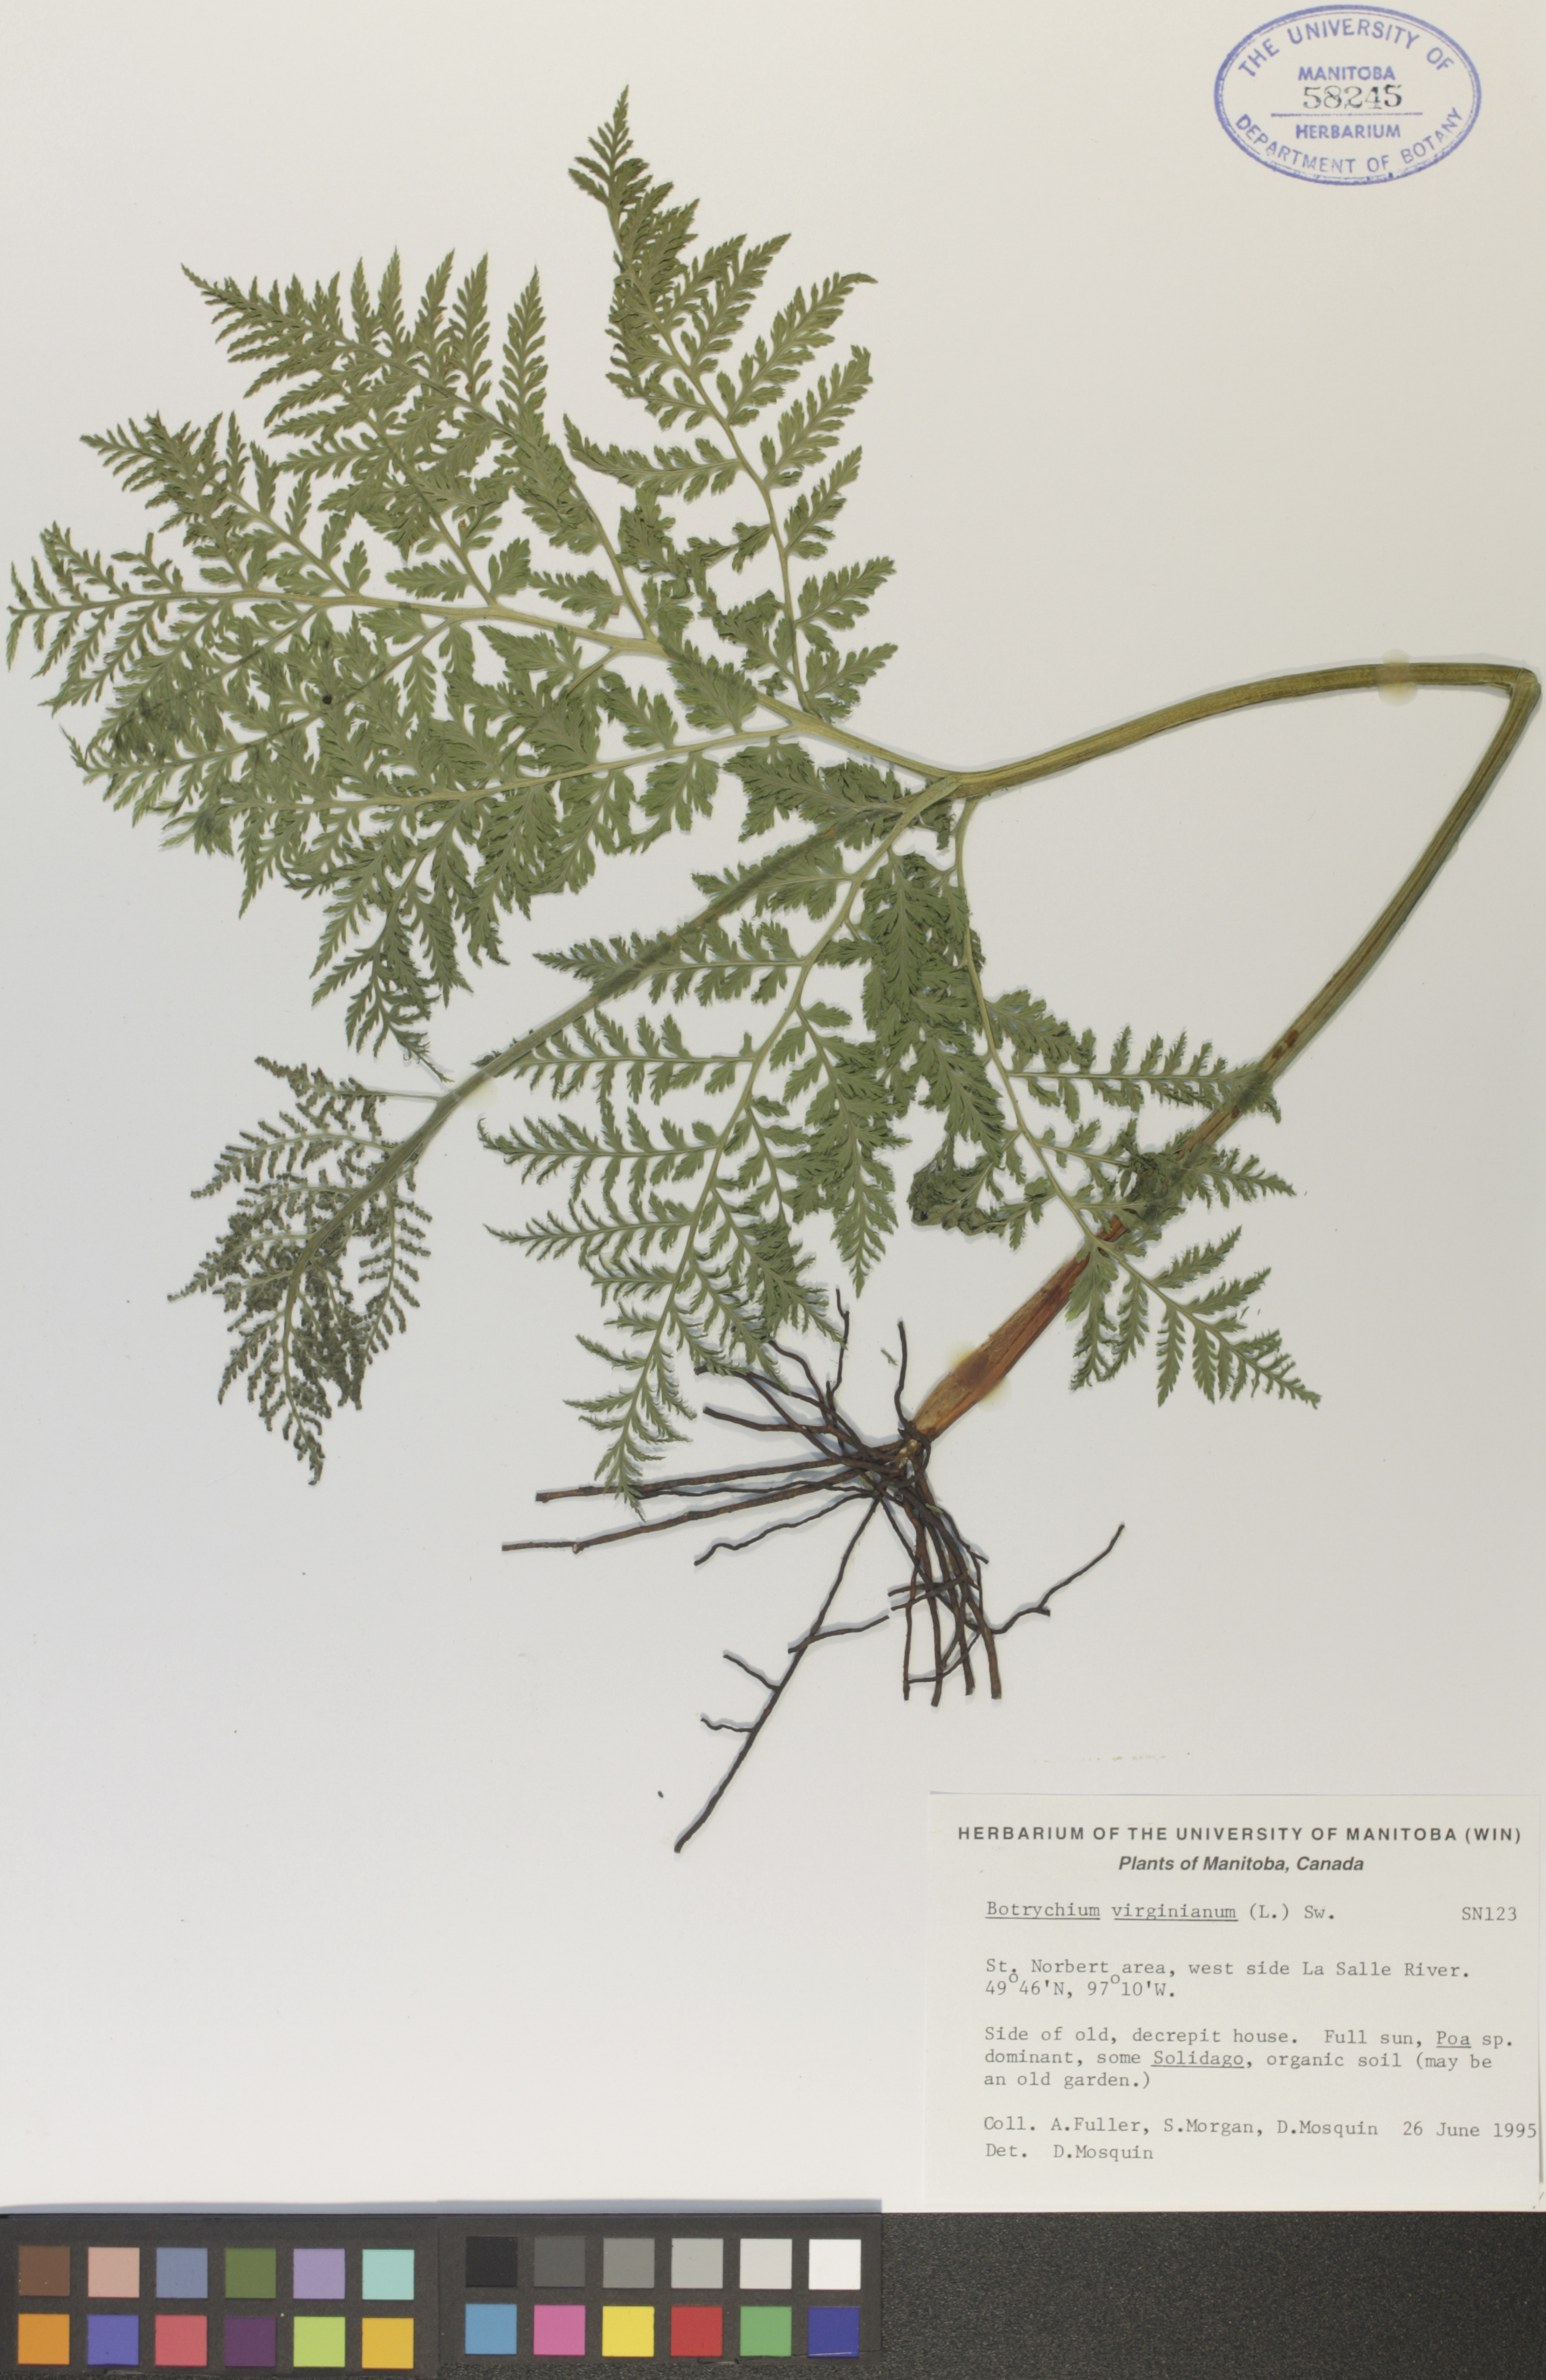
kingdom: Plantae
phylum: Tracheophyta
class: Polypodiopsida
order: Ophioglossales
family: Ophioglossaceae
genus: Botrypus
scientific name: Botrypus virginianus
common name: Common grapefern
